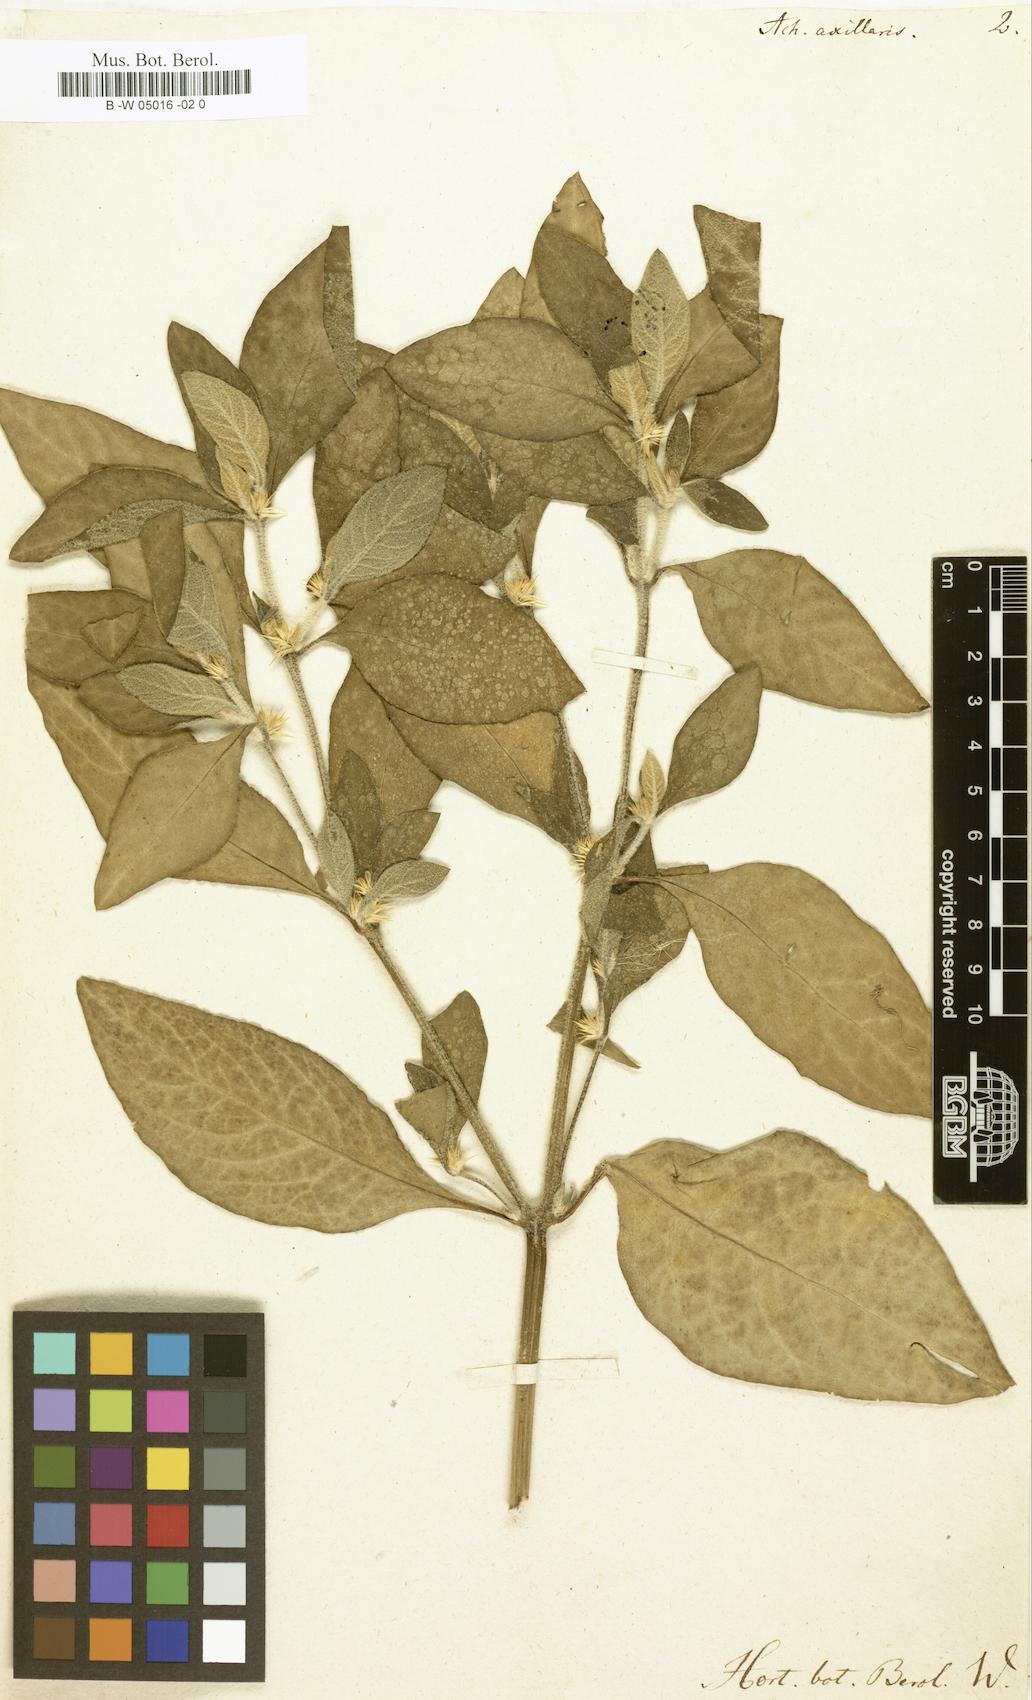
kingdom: Plantae
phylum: Tracheophyta
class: Magnoliopsida
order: Caryophyllales
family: Amaranthaceae
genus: Alternanthera
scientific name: Alternanthera axillaris
